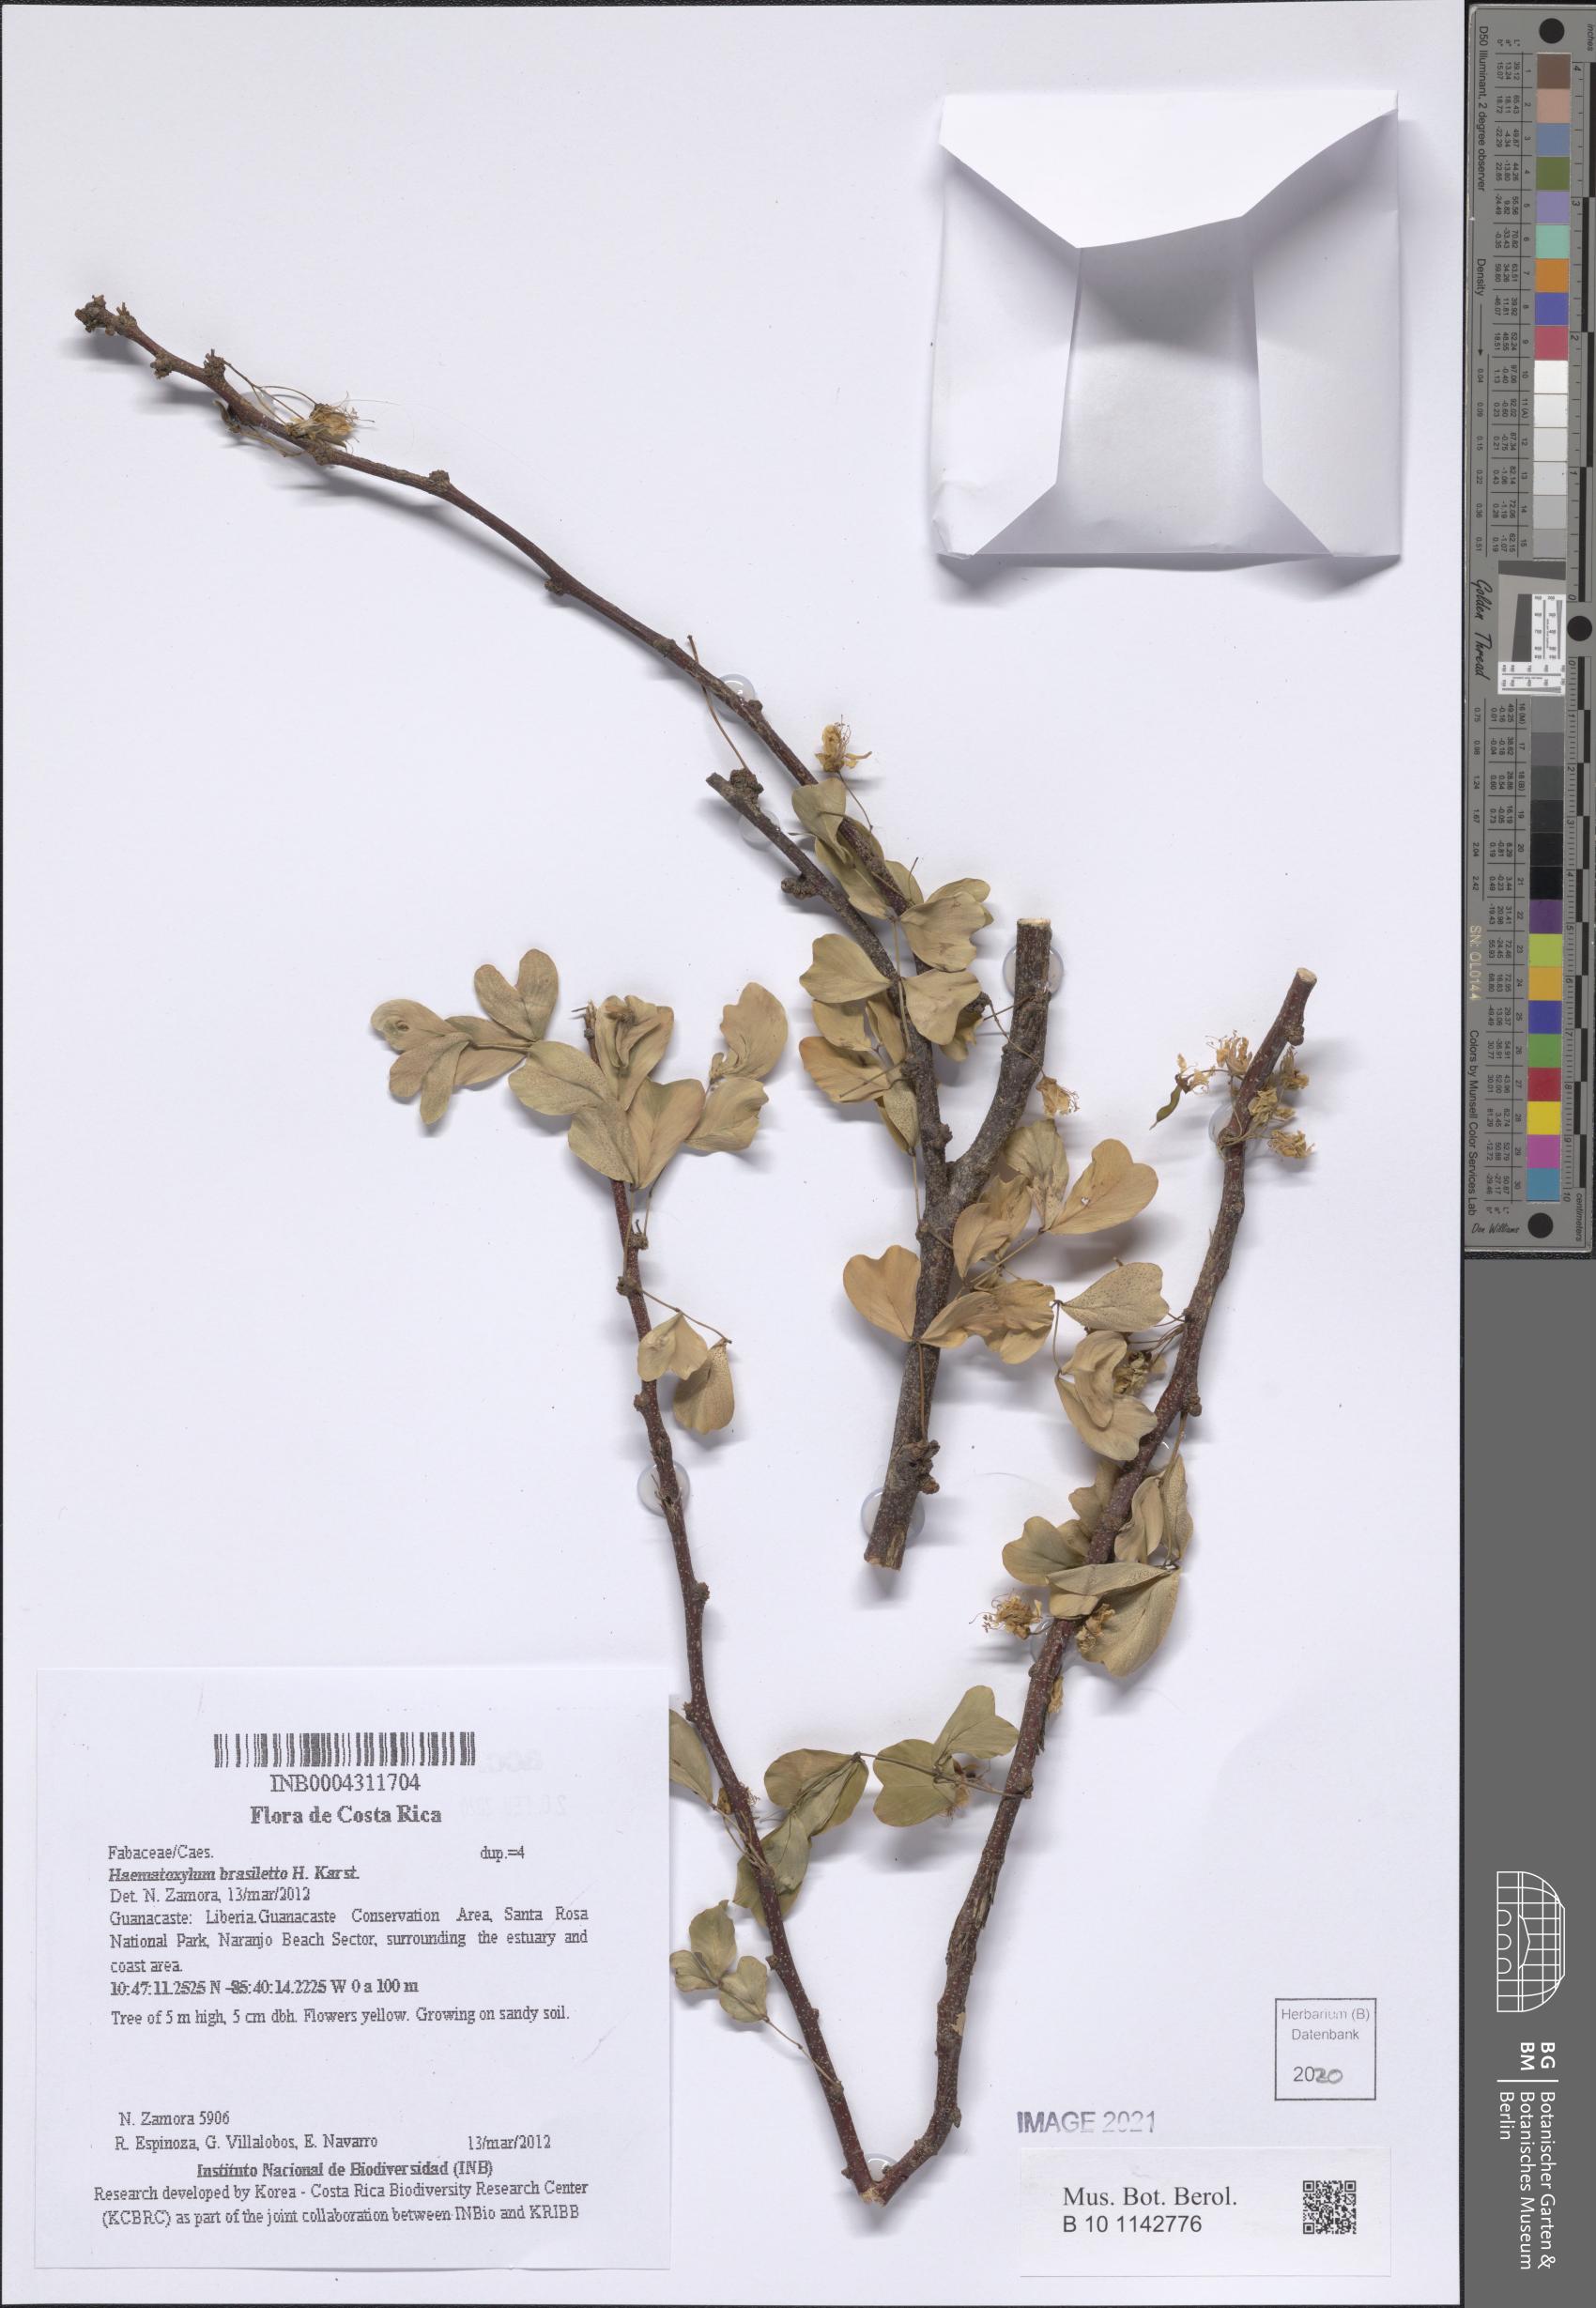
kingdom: Plantae
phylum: Tracheophyta
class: Magnoliopsida
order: Fabales
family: Fabaceae
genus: Haematoxylum
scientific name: Haematoxylum brasiletto
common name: Peachwood
